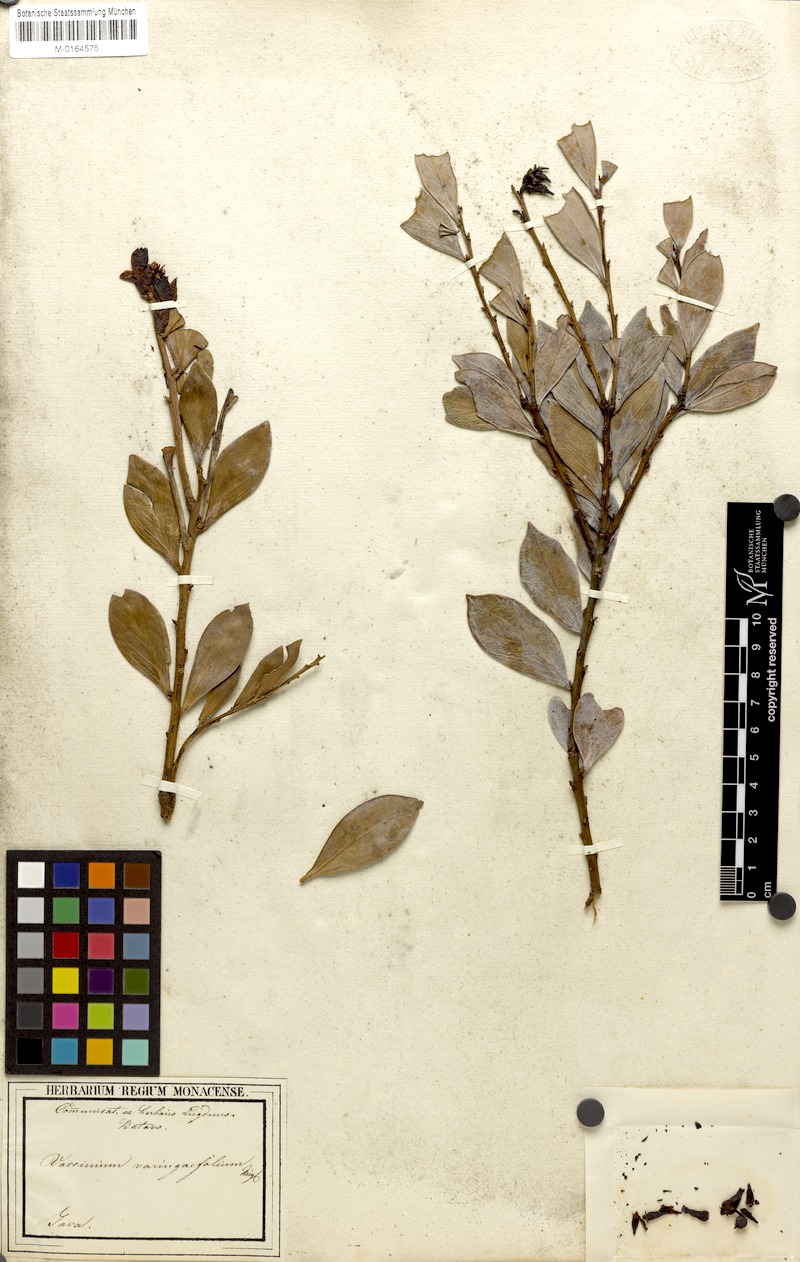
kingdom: Plantae
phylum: Tracheophyta
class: Magnoliopsida
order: Ericales
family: Ericaceae
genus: Vaccinium
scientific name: Vaccinium varingiifolium
